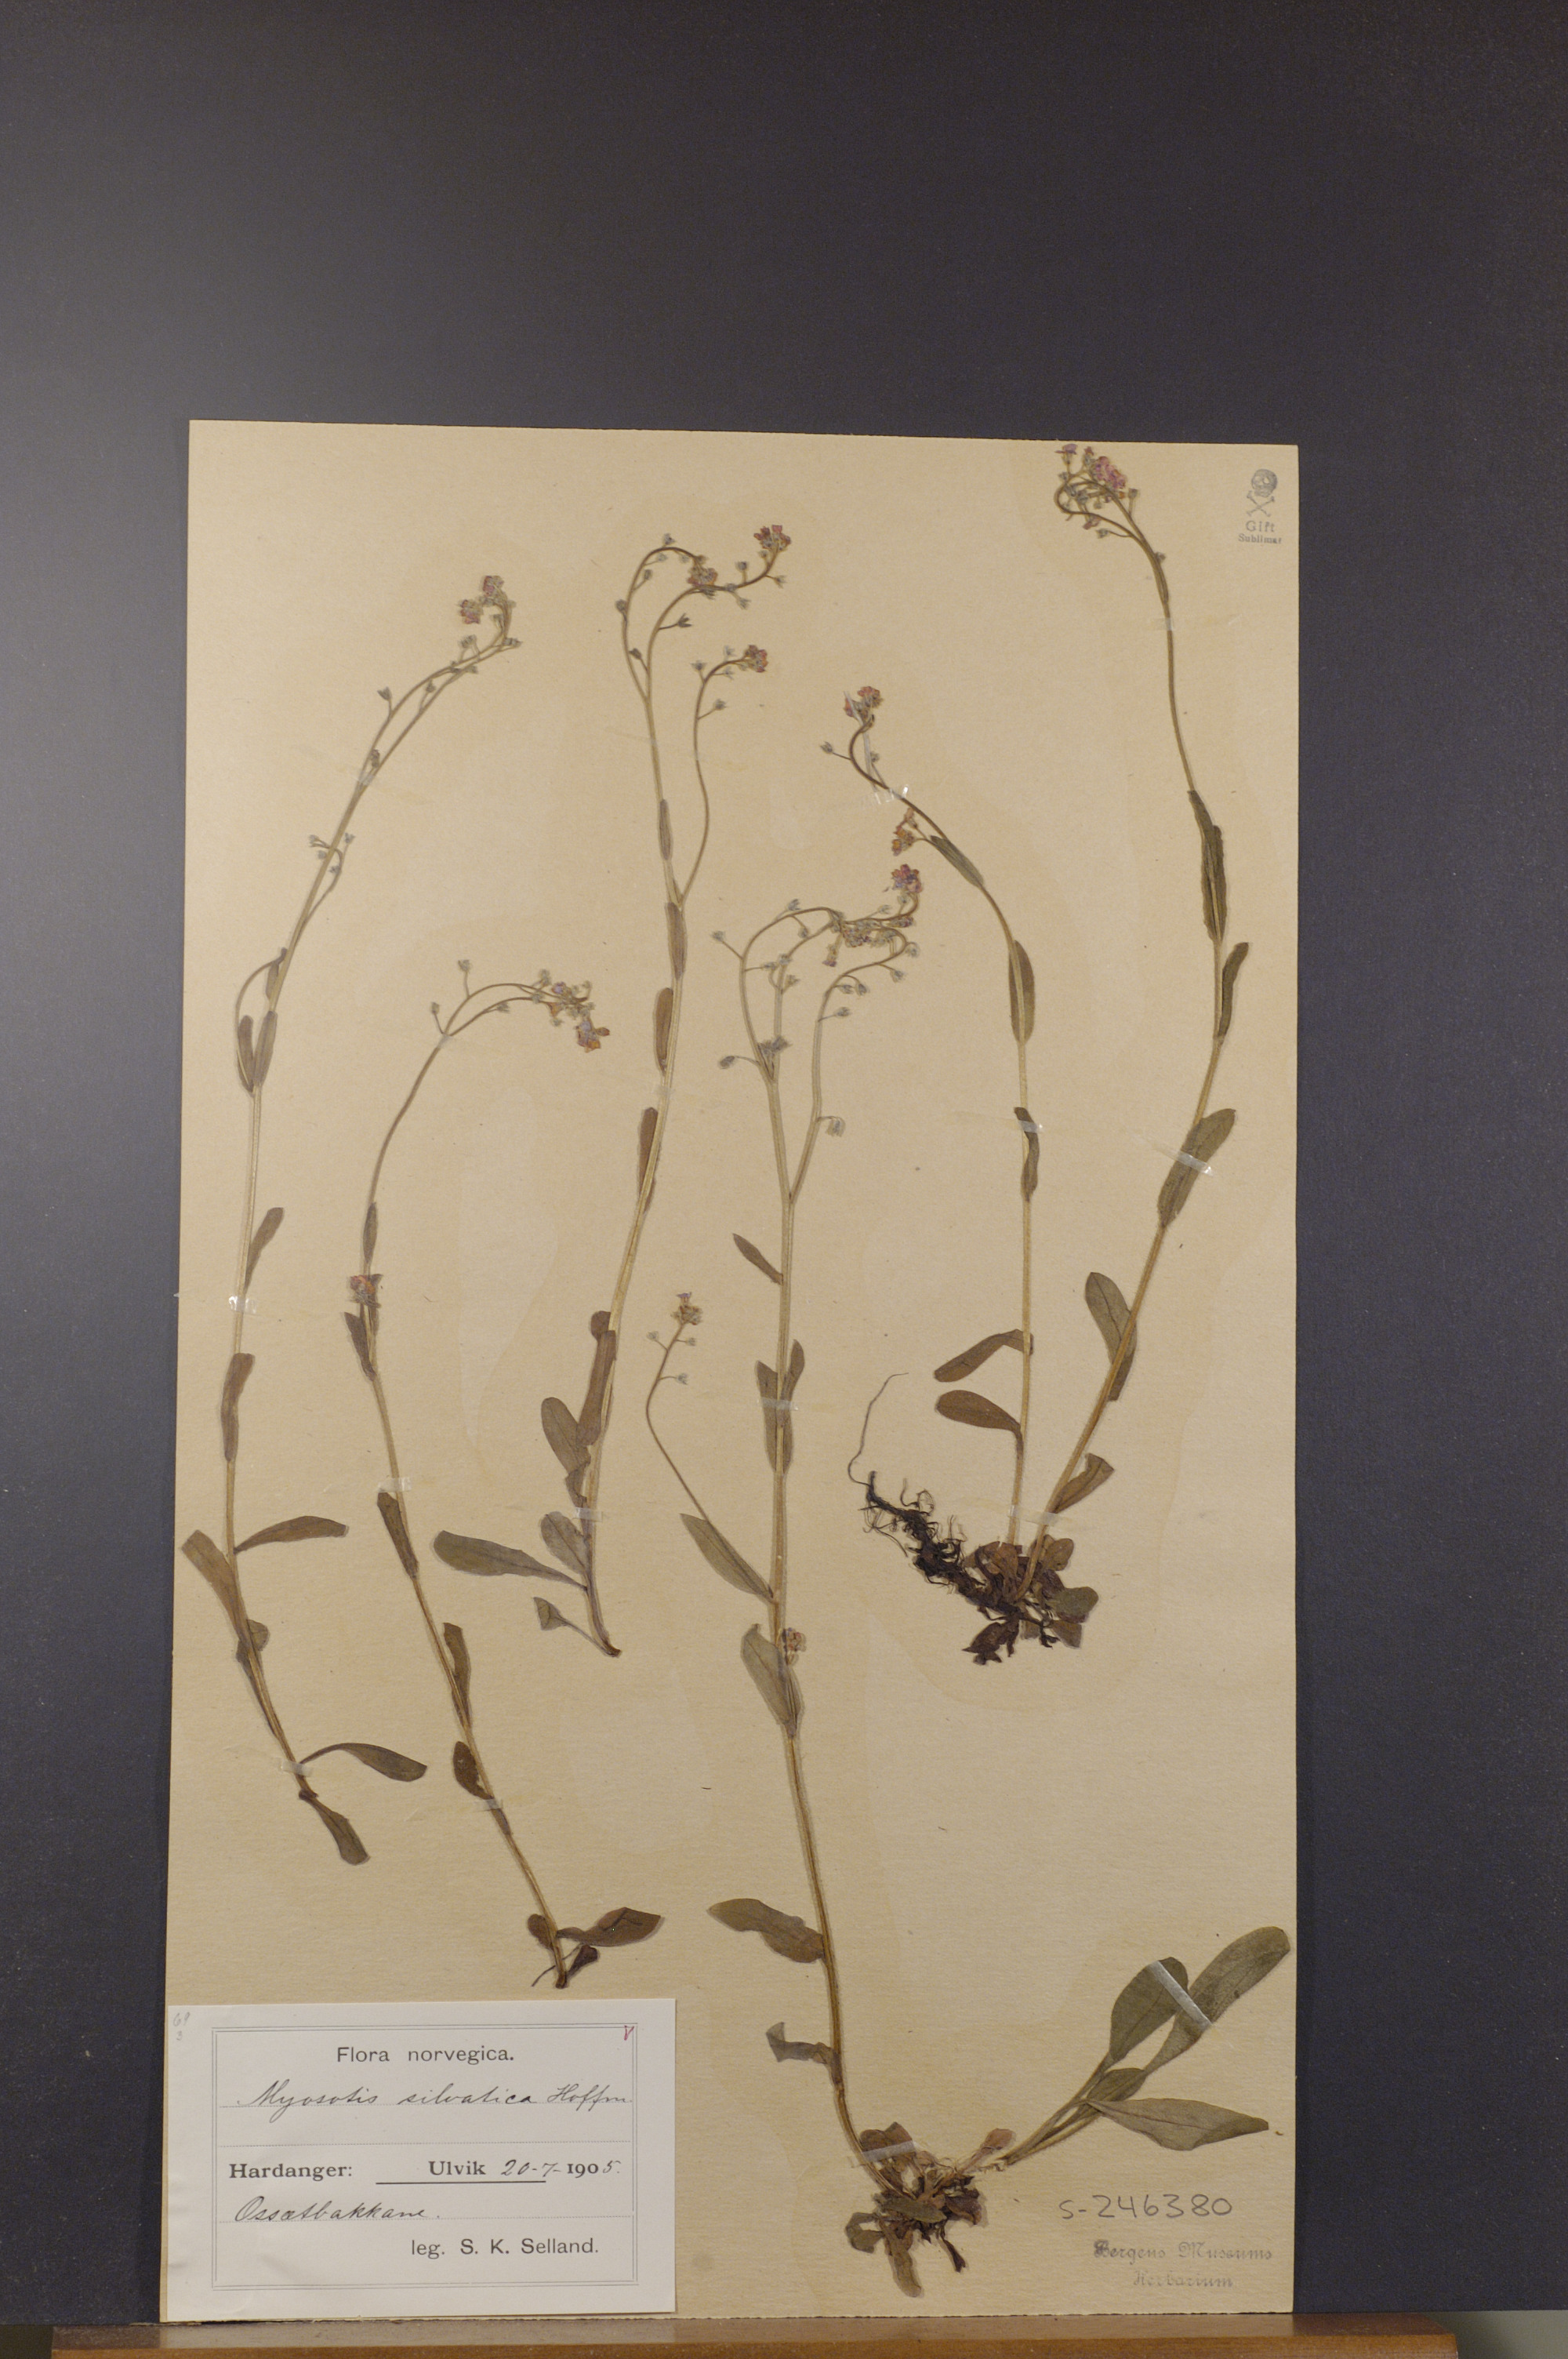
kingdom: Plantae
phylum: Tracheophyta
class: Magnoliopsida
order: Boraginales
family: Boraginaceae
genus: Myosotis
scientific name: Myosotis decumbens
